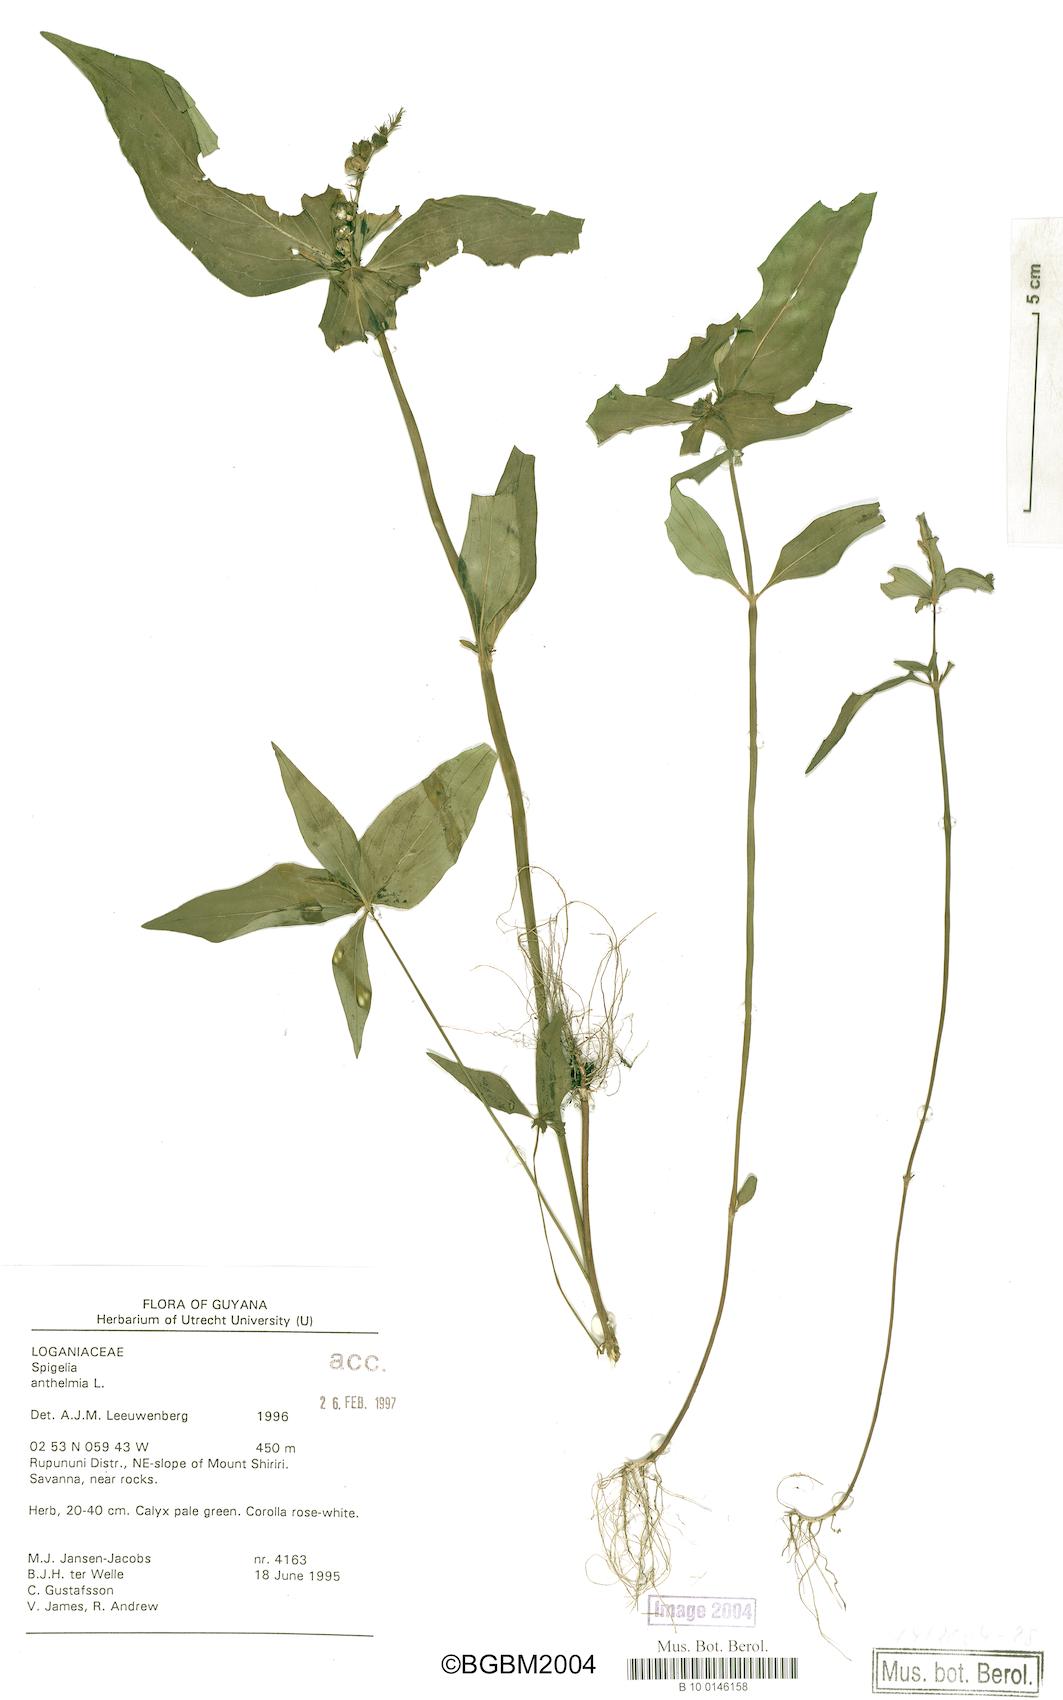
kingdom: Plantae
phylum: Tracheophyta
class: Magnoliopsida
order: Gentianales
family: Loganiaceae
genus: Spigelia
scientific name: Spigelia anthelmia
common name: West indian-pink
